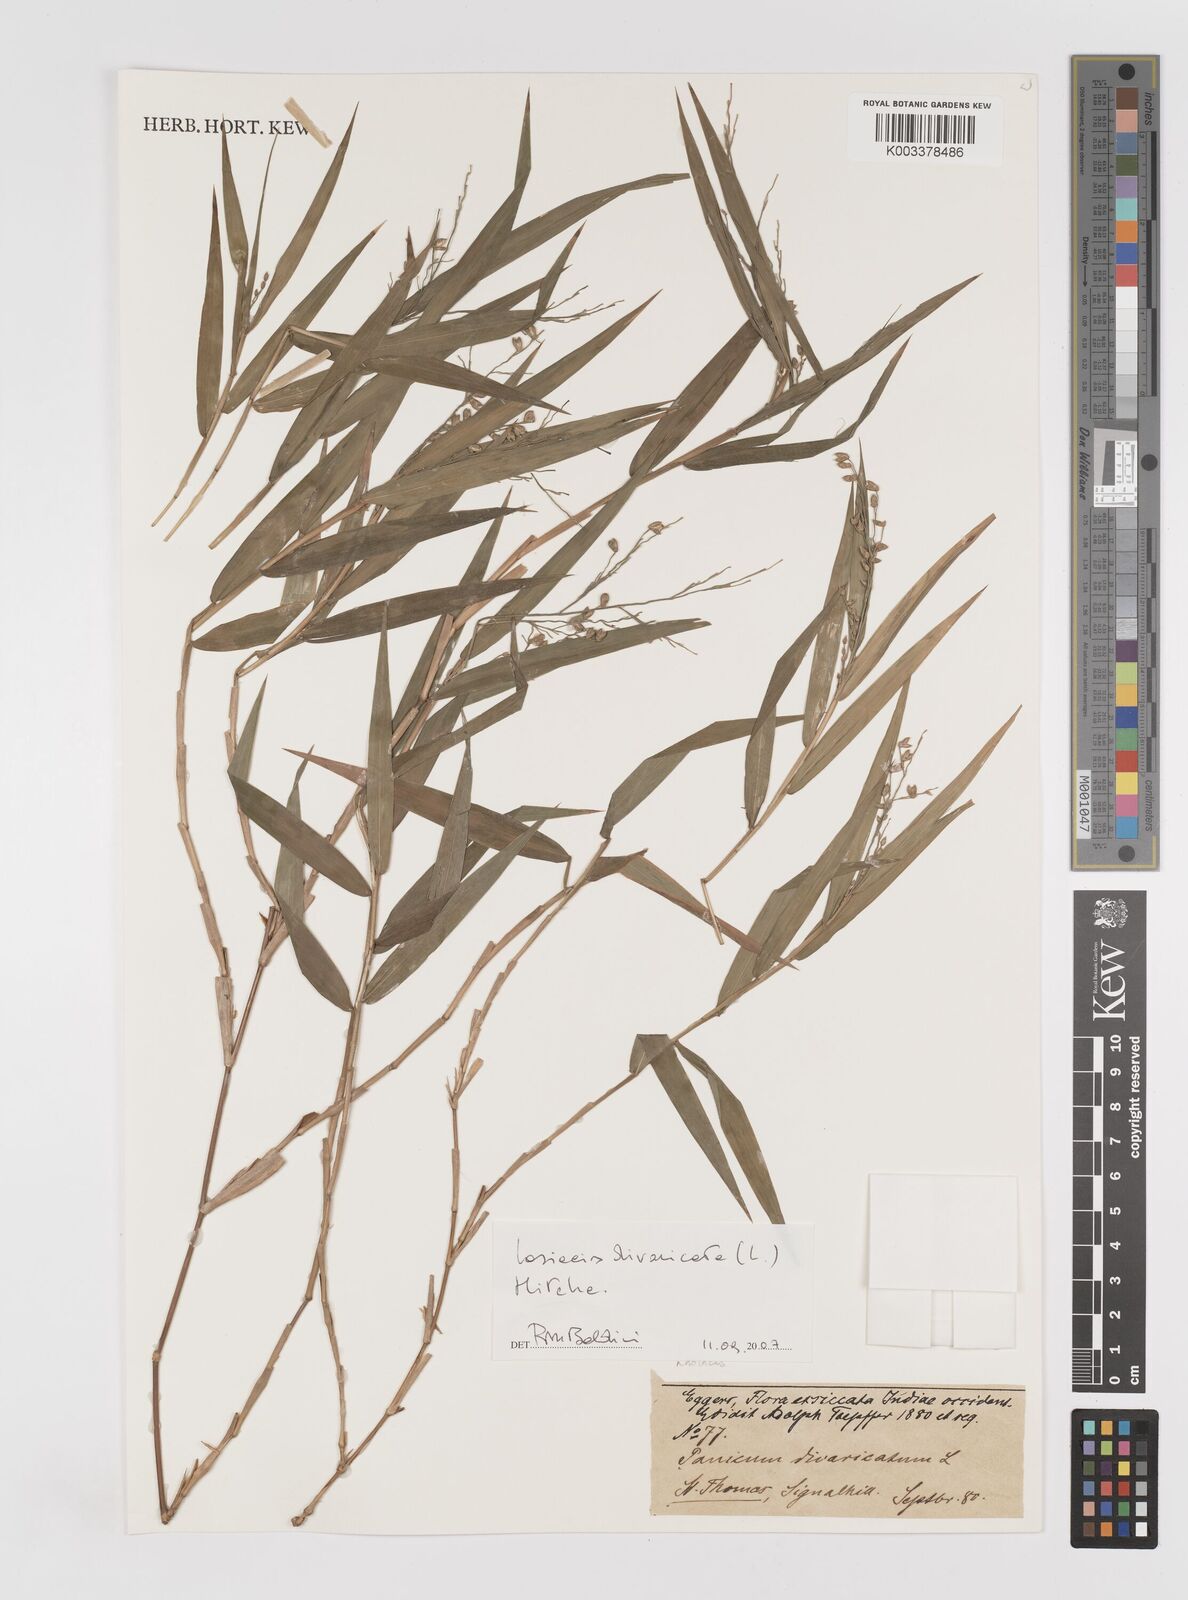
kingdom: Plantae
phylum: Tracheophyta
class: Liliopsida
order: Poales
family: Poaceae
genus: Lasiacis
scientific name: Lasiacis divaricata
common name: Smallcane
